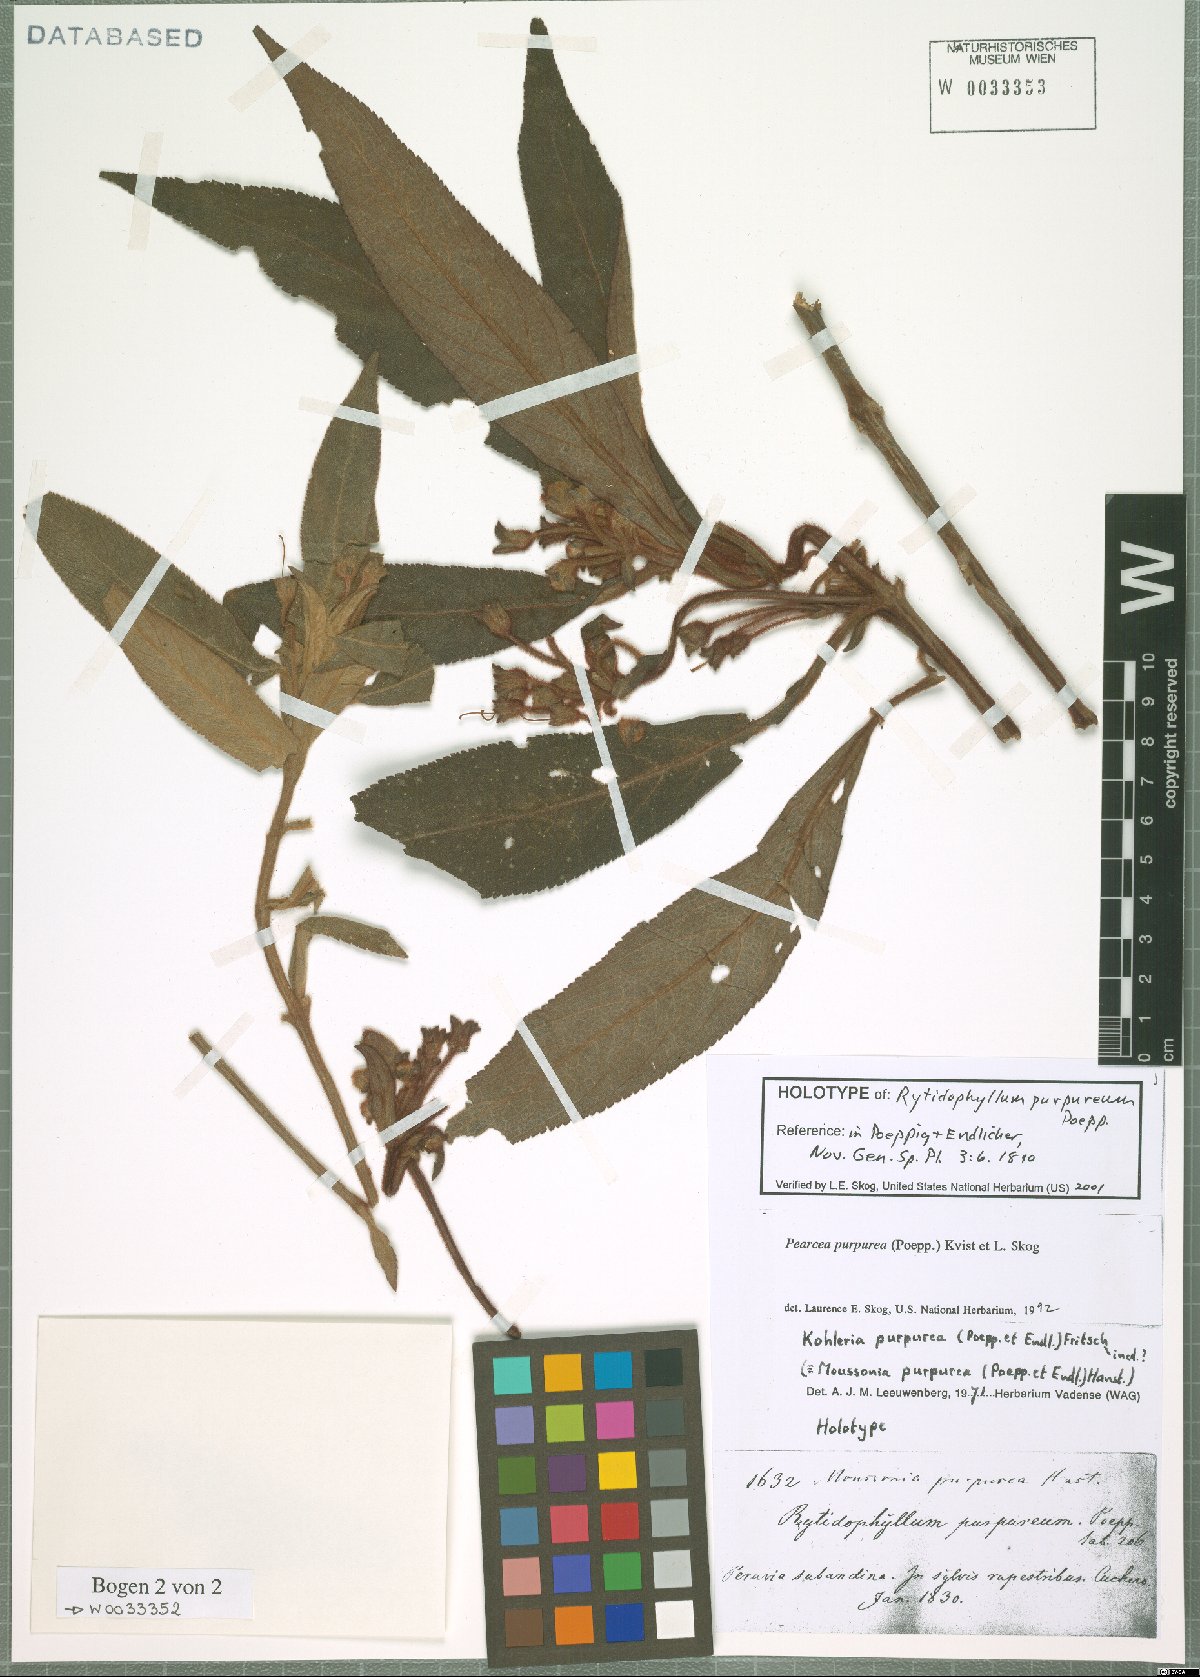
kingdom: Plantae
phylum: Tracheophyta
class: Magnoliopsida
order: Lamiales
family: Gesneriaceae
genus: Pearcea
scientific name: Pearcea purpurea
